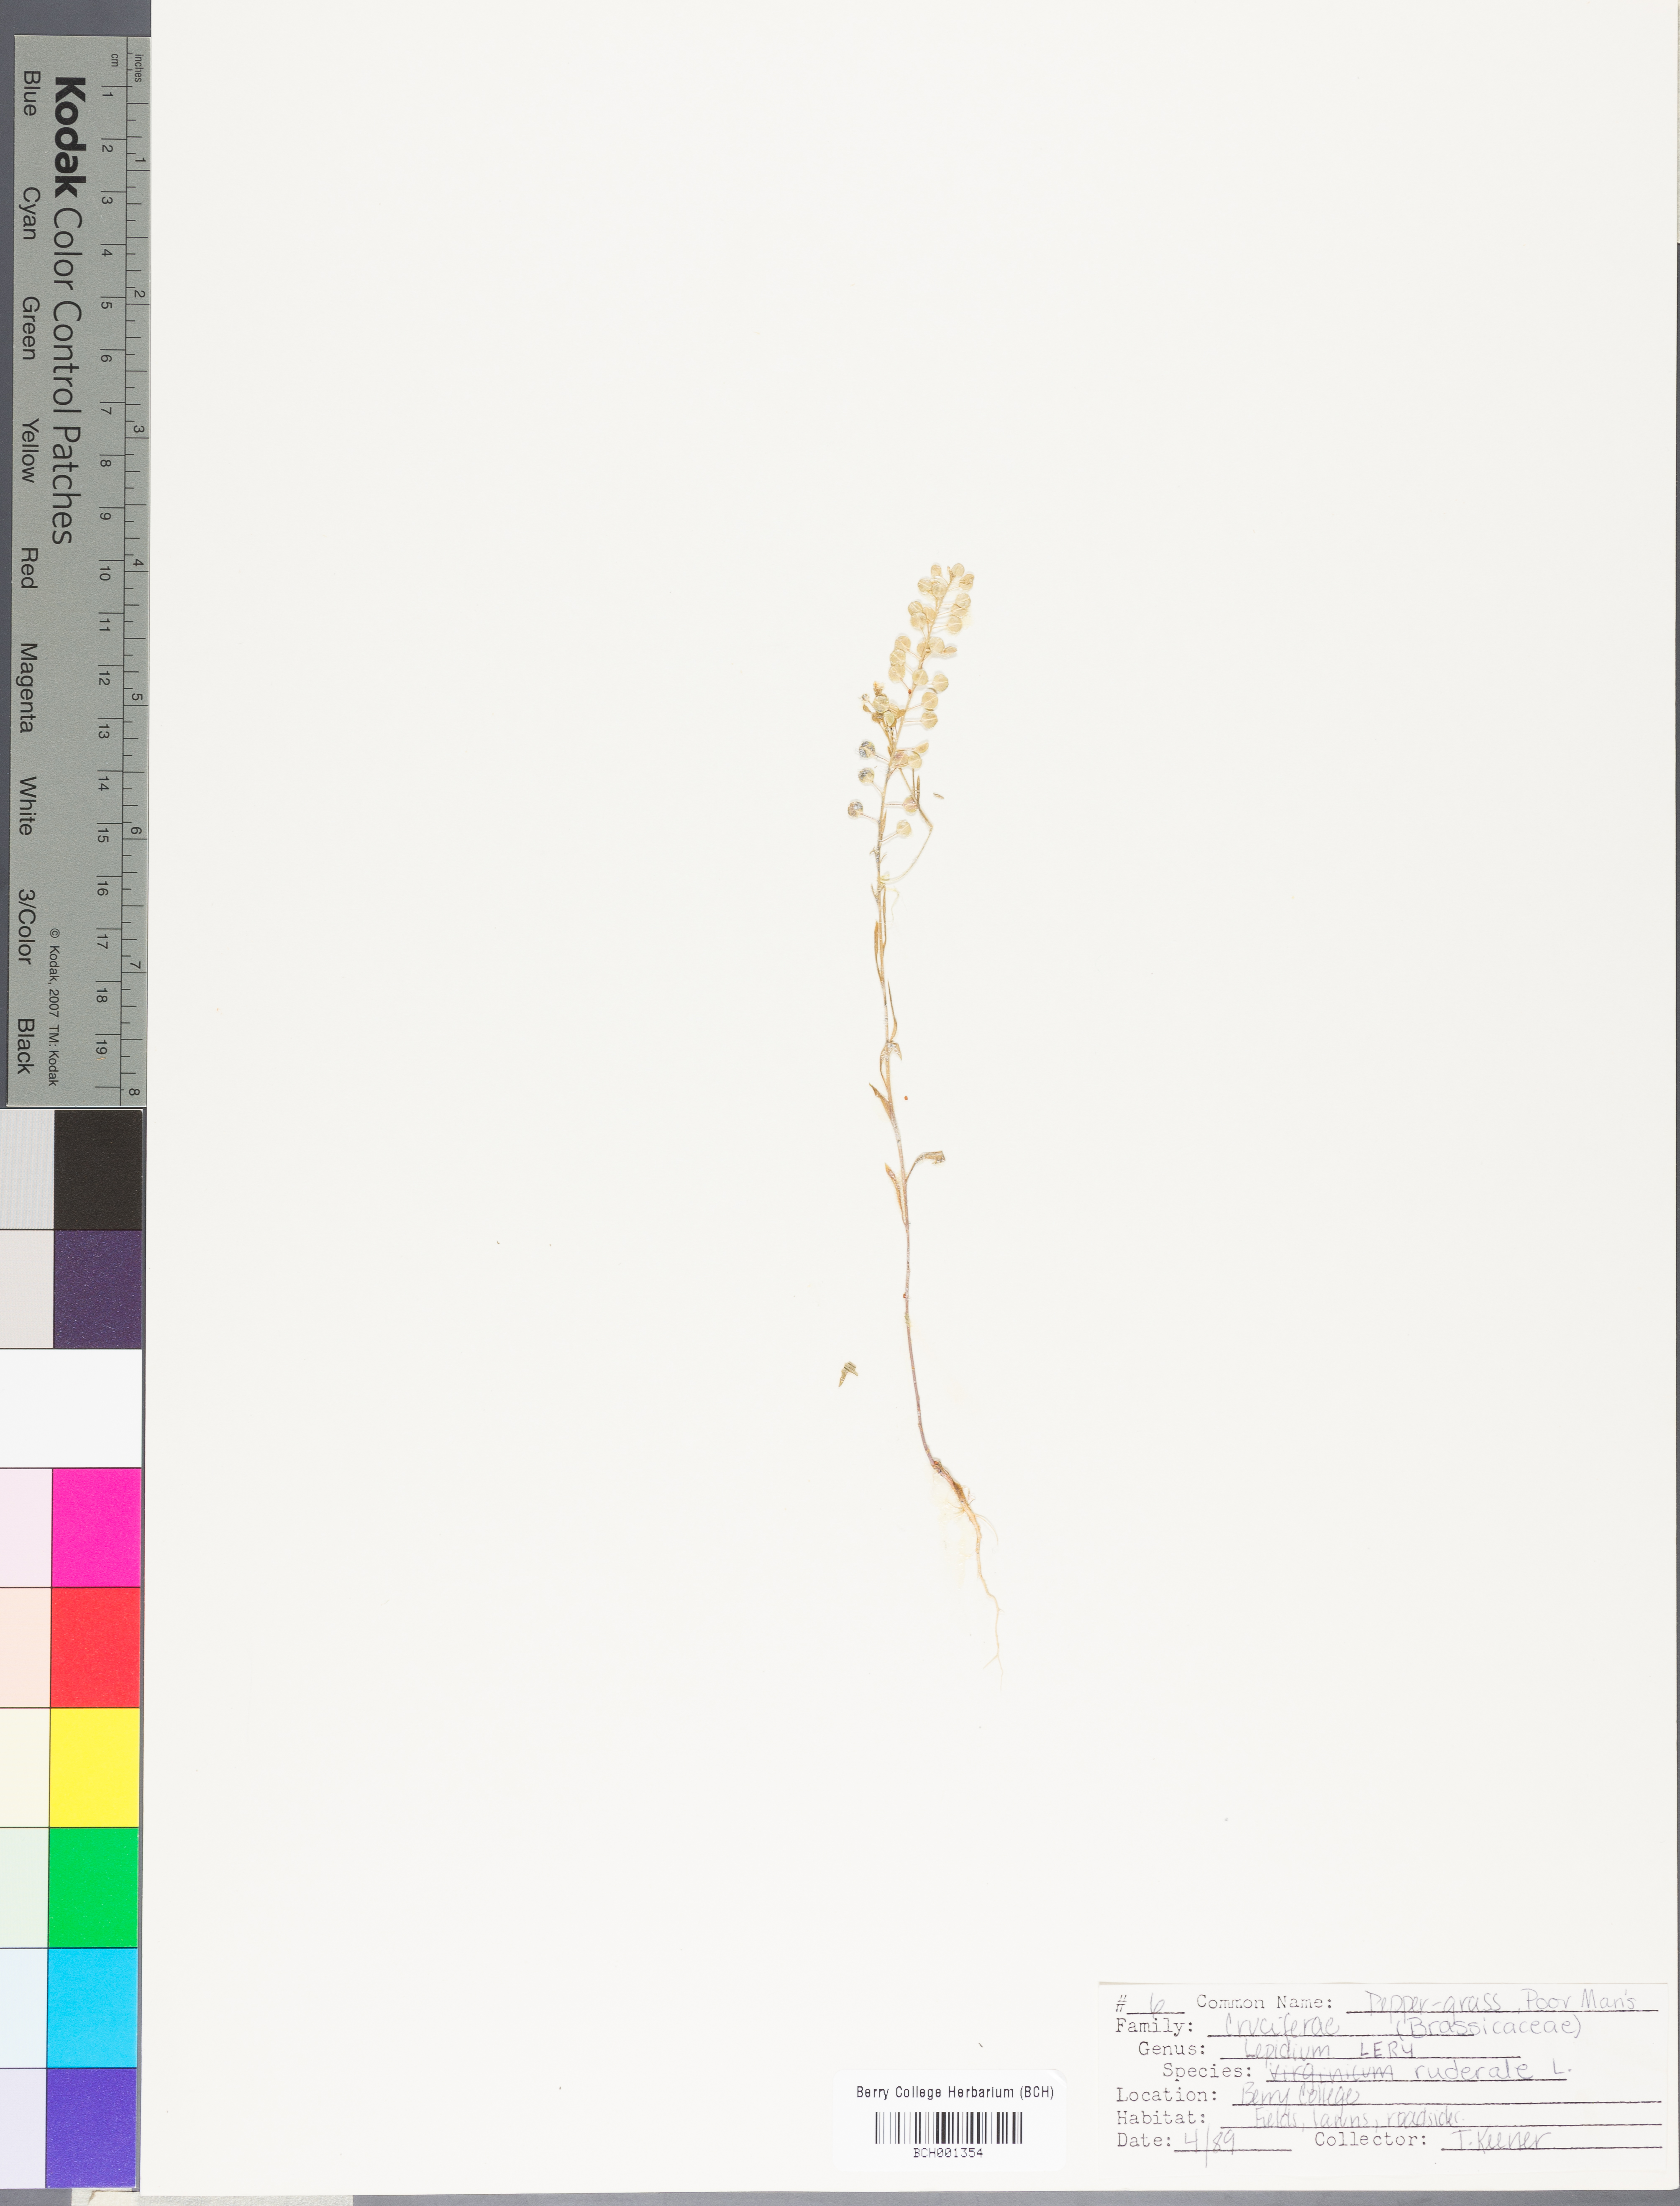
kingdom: Plantae
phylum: Tracheophyta
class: Magnoliopsida
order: Brassicales
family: Brassicaceae
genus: Lepidium
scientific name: Lepidium ruderale
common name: Narrow-leaved pepperwort
